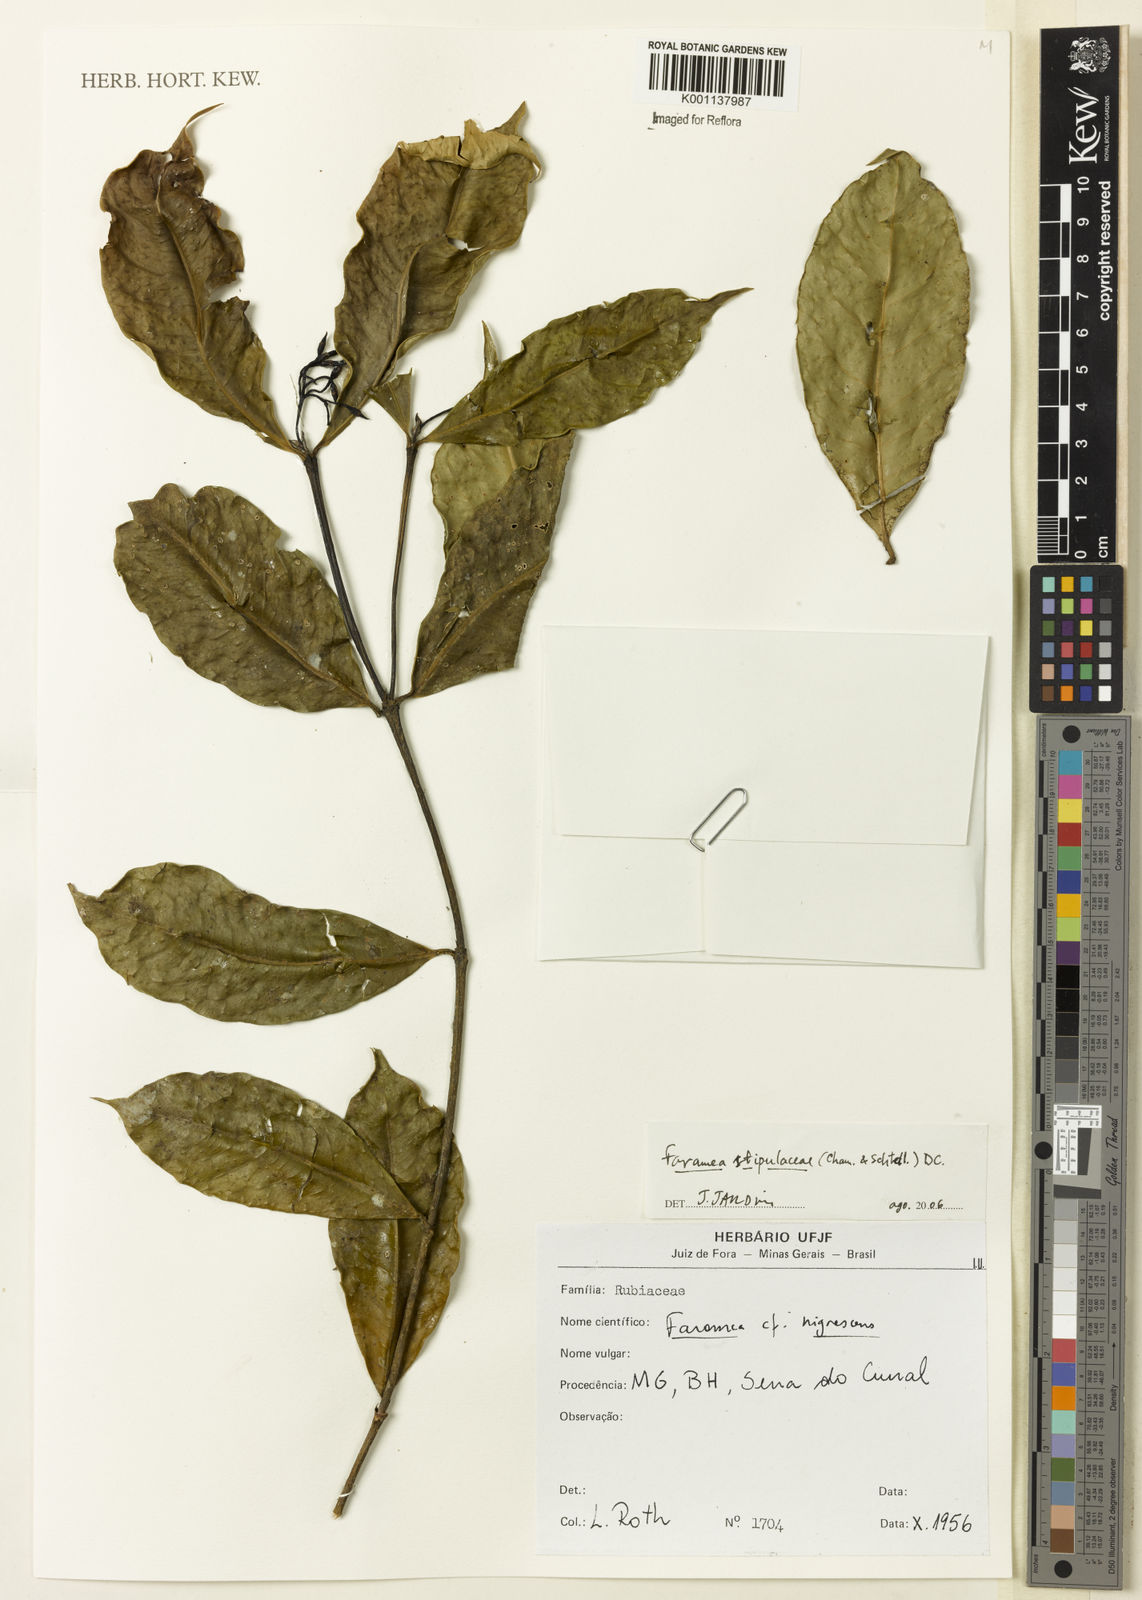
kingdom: Plantae
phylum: Tracheophyta
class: Magnoliopsida
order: Gentianales
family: Rubiaceae
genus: Faramea
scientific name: Faramea stipulacea
